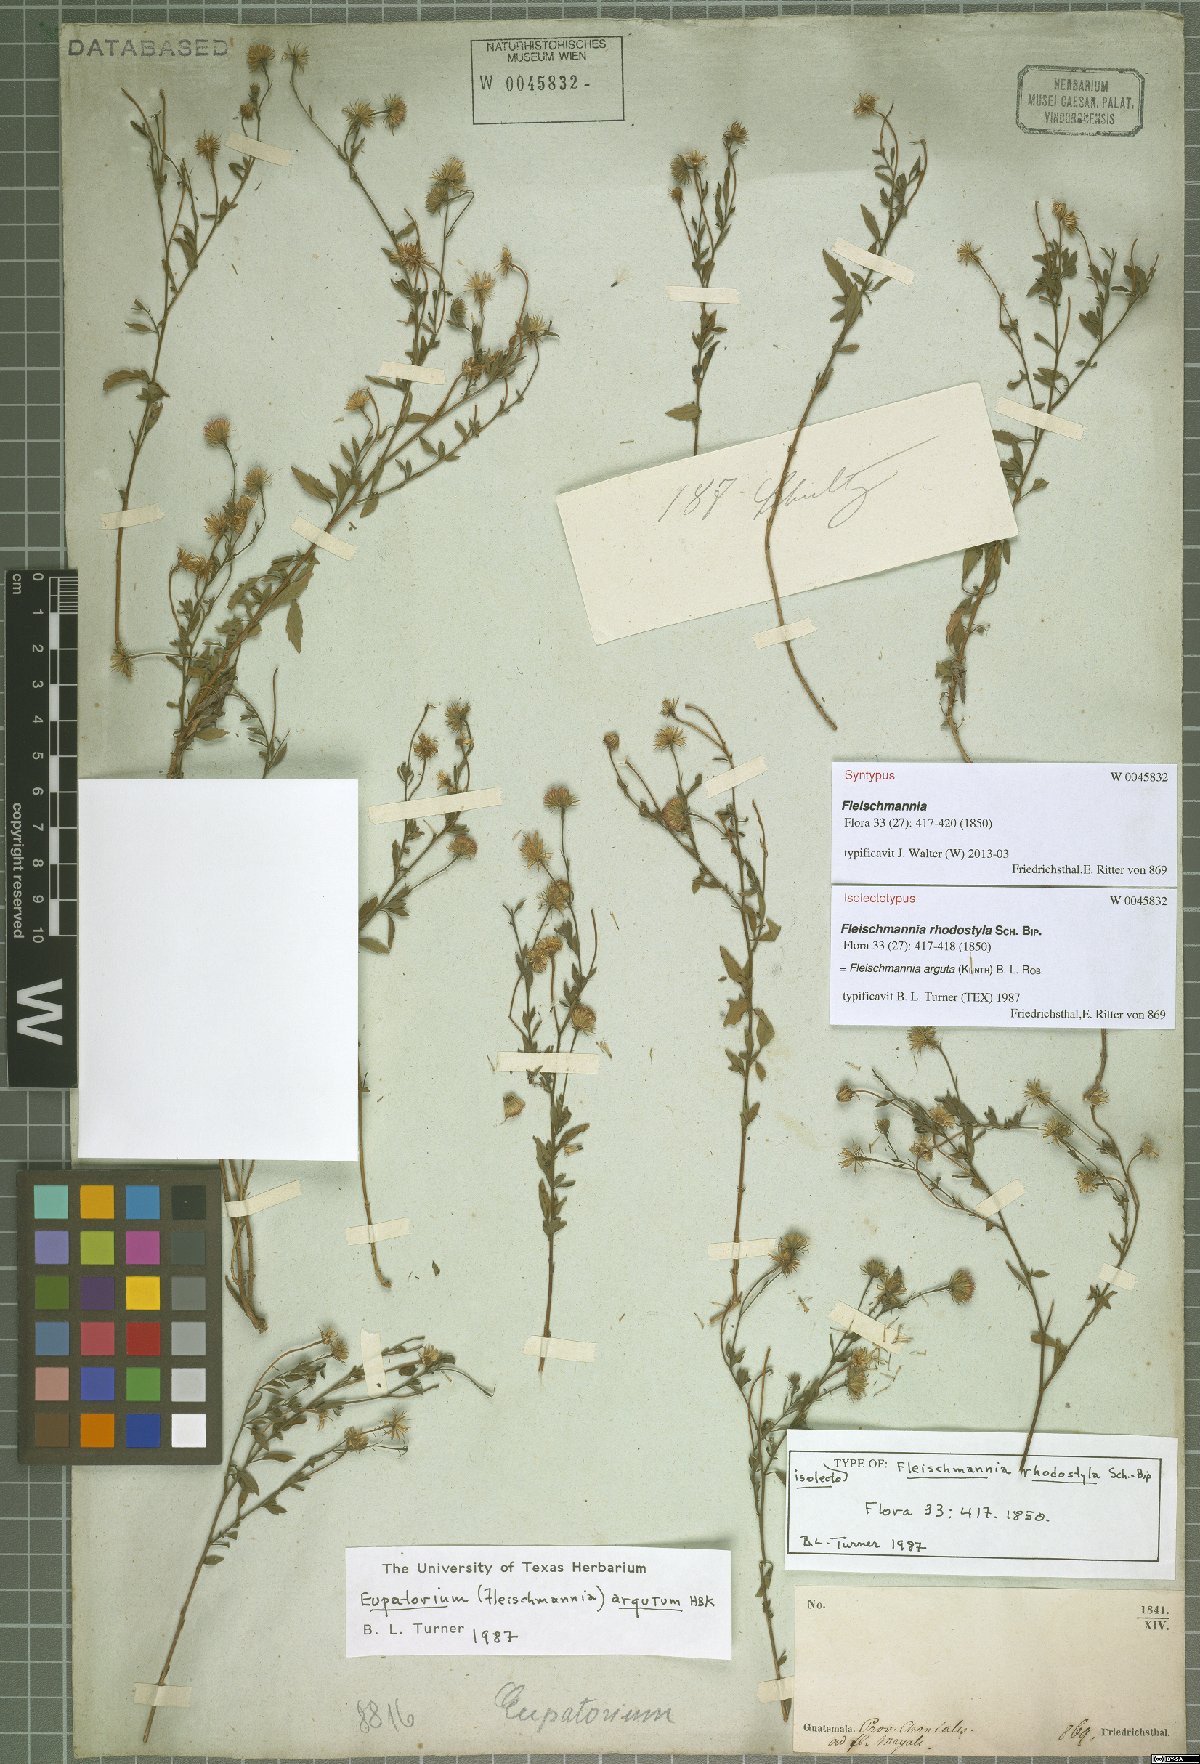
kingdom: Plantae
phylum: Tracheophyta
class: Magnoliopsida
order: Asterales
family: Asteraceae
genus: Fleischmannia
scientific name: Fleischmannia arguta
